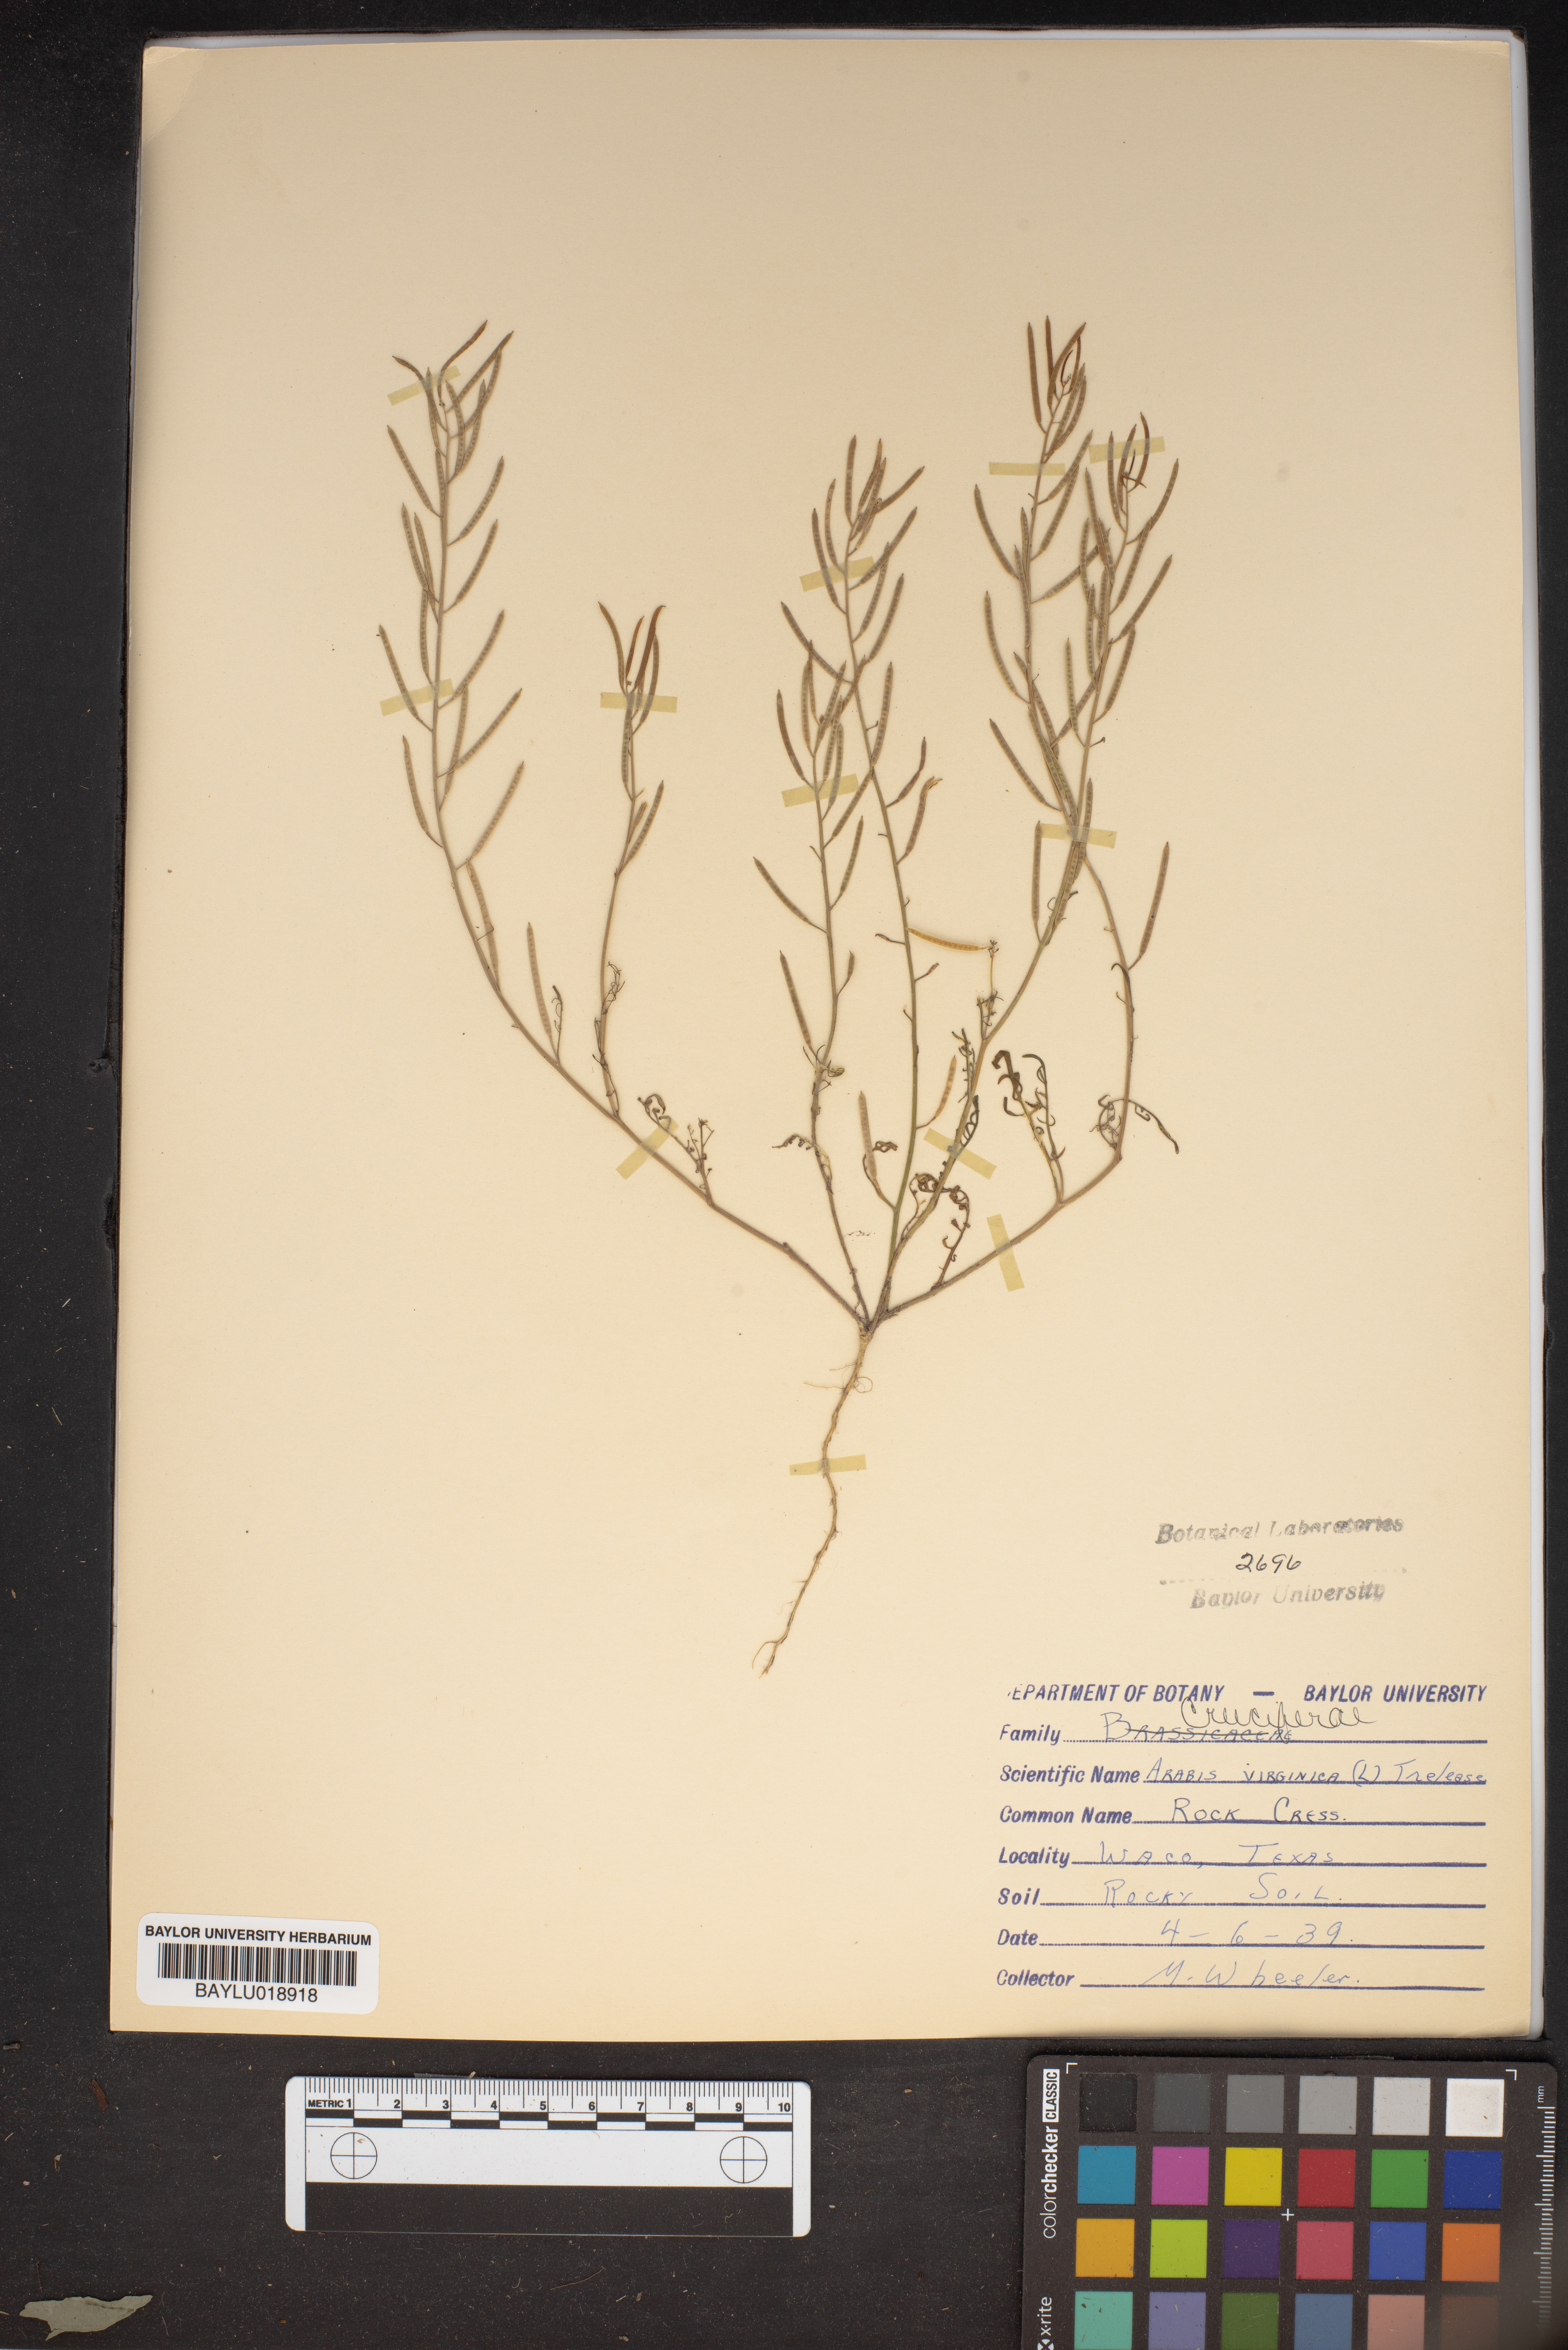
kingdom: Plantae
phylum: Tracheophyta
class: Magnoliopsida
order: Brassicales
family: Brassicaceae
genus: Planodes
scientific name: Planodes virginicum
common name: Virginia cress
